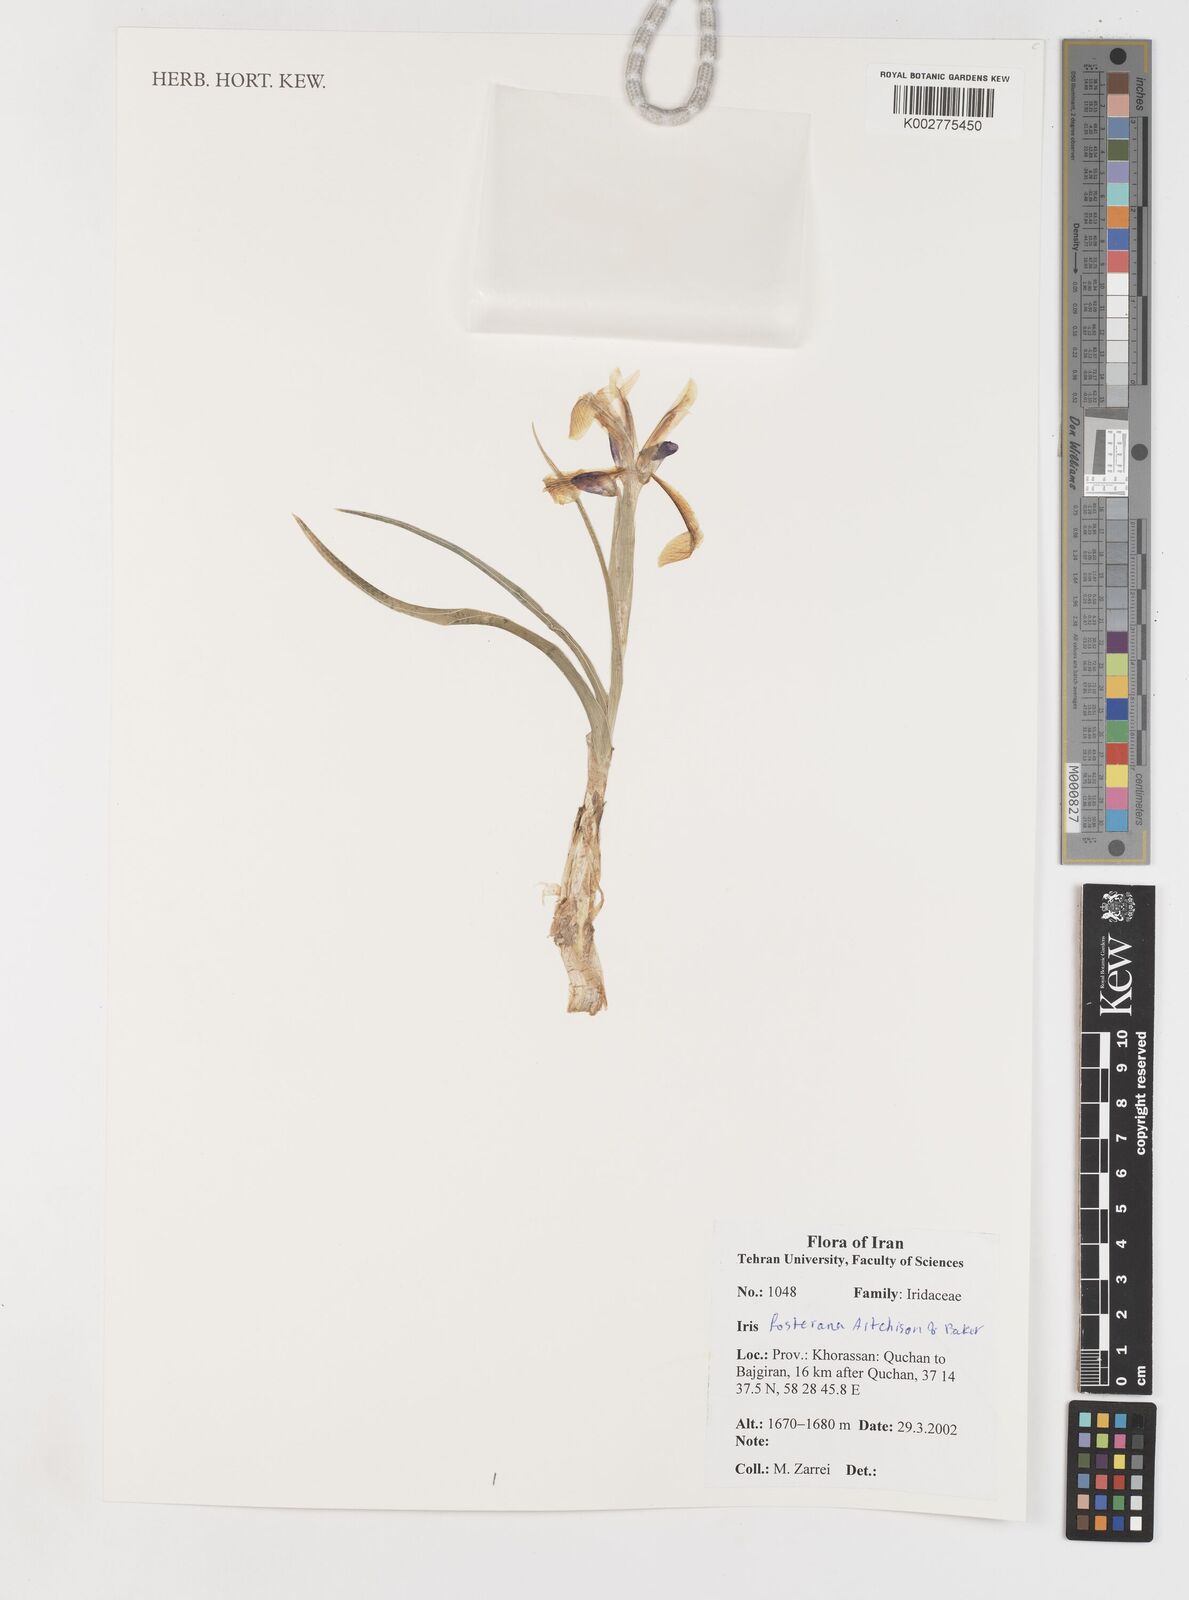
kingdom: Plantae
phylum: Tracheophyta
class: Liliopsida
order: Asparagales
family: Iridaceae
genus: Iris
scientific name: Iris fosteriana
